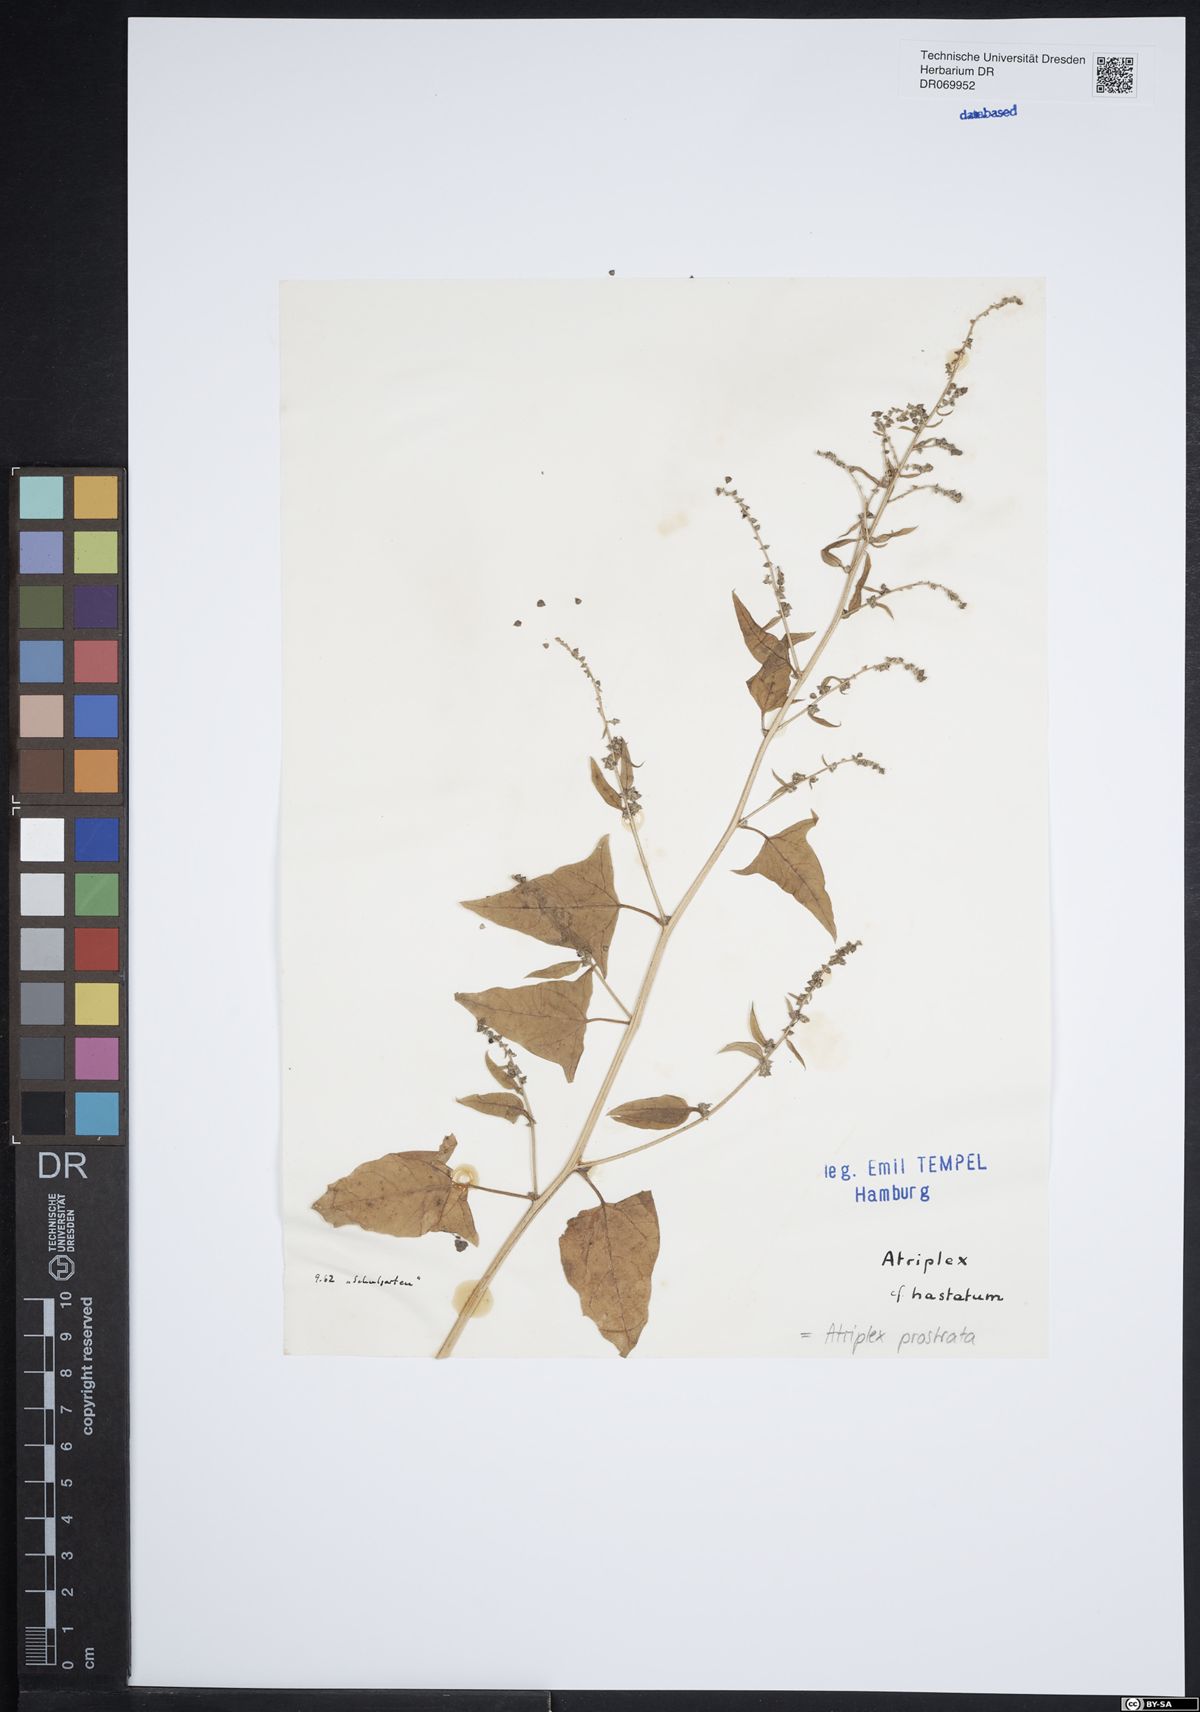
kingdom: Plantae
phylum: Tracheophyta
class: Magnoliopsida
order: Caryophyllales
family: Amaranthaceae
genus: Atriplex
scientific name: Atriplex prostrata
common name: Spear-leaved orache
